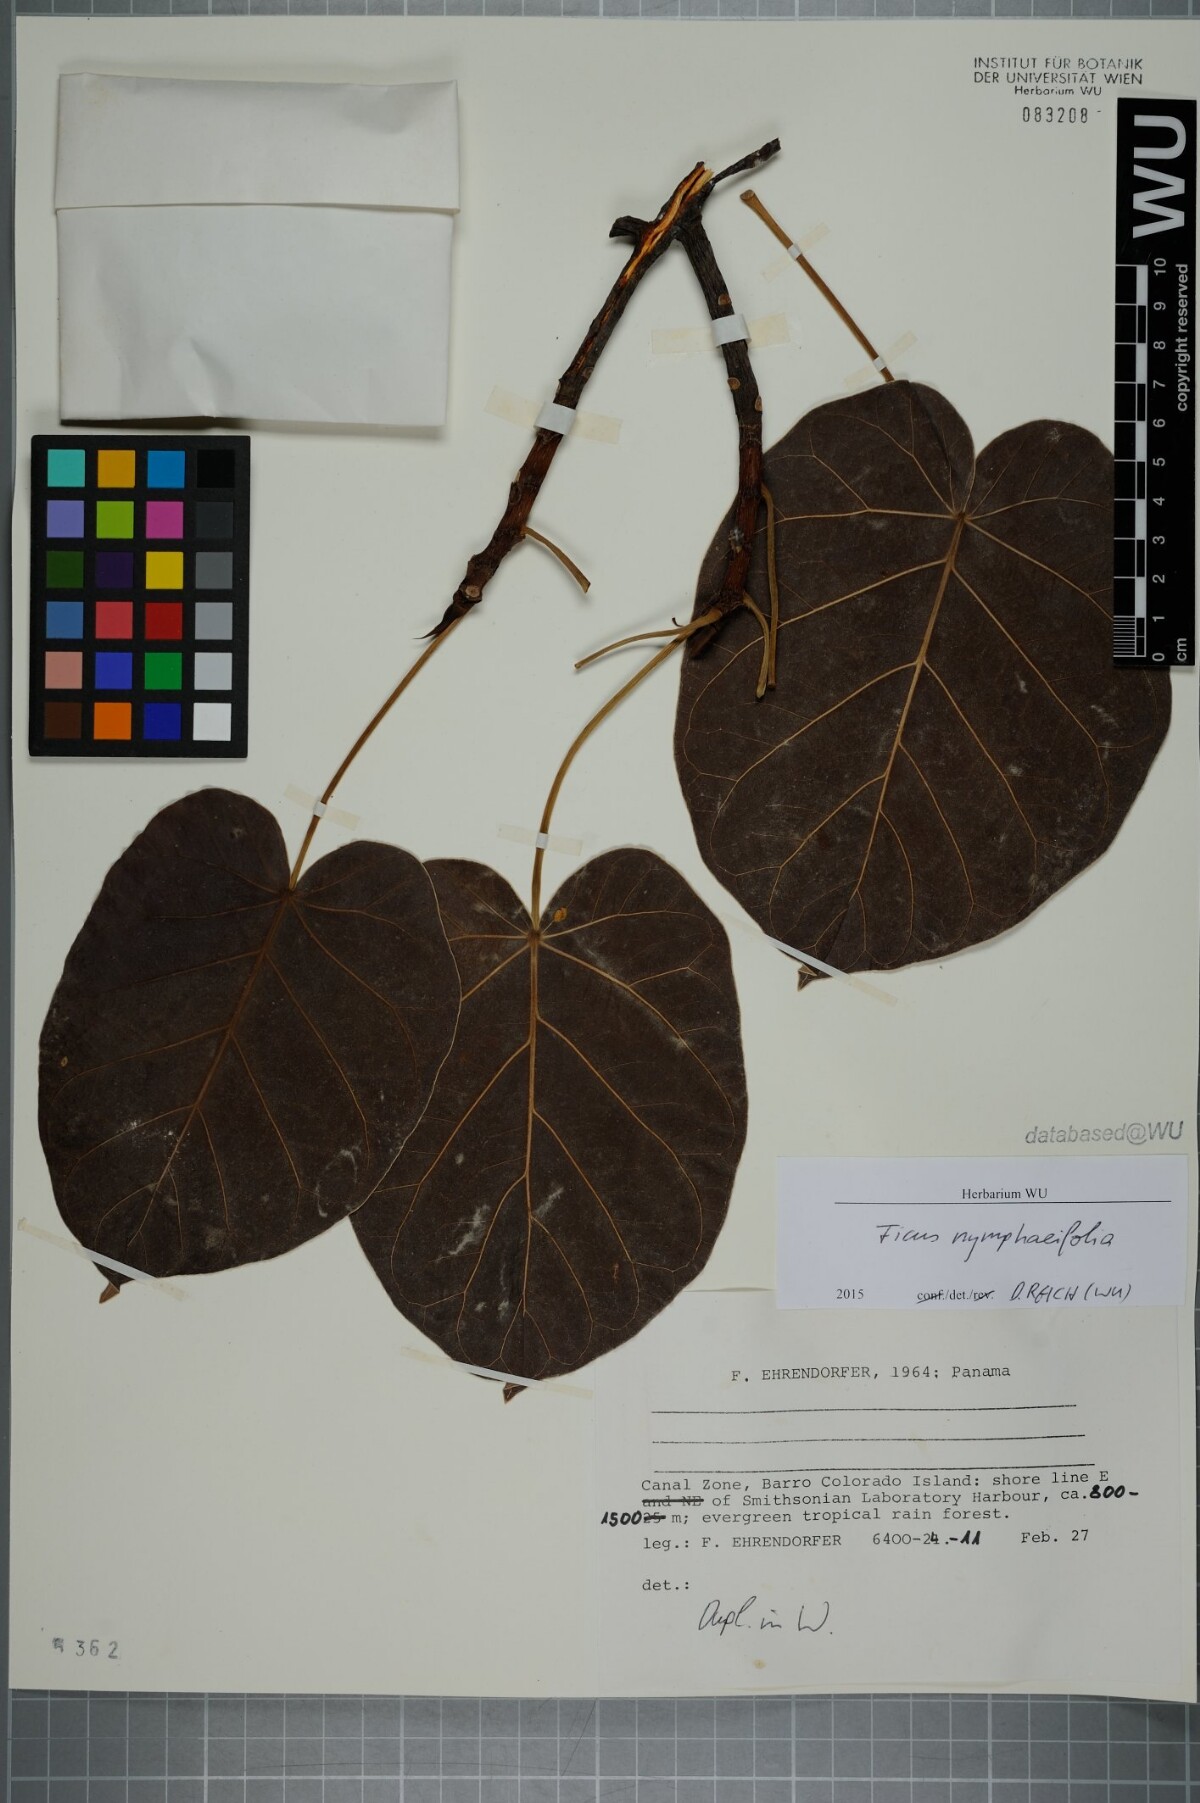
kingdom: Plantae
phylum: Tracheophyta
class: Magnoliopsida
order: Rosales
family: Moraceae
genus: Ficus
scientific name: Ficus nymphaeifolia
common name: Fig
